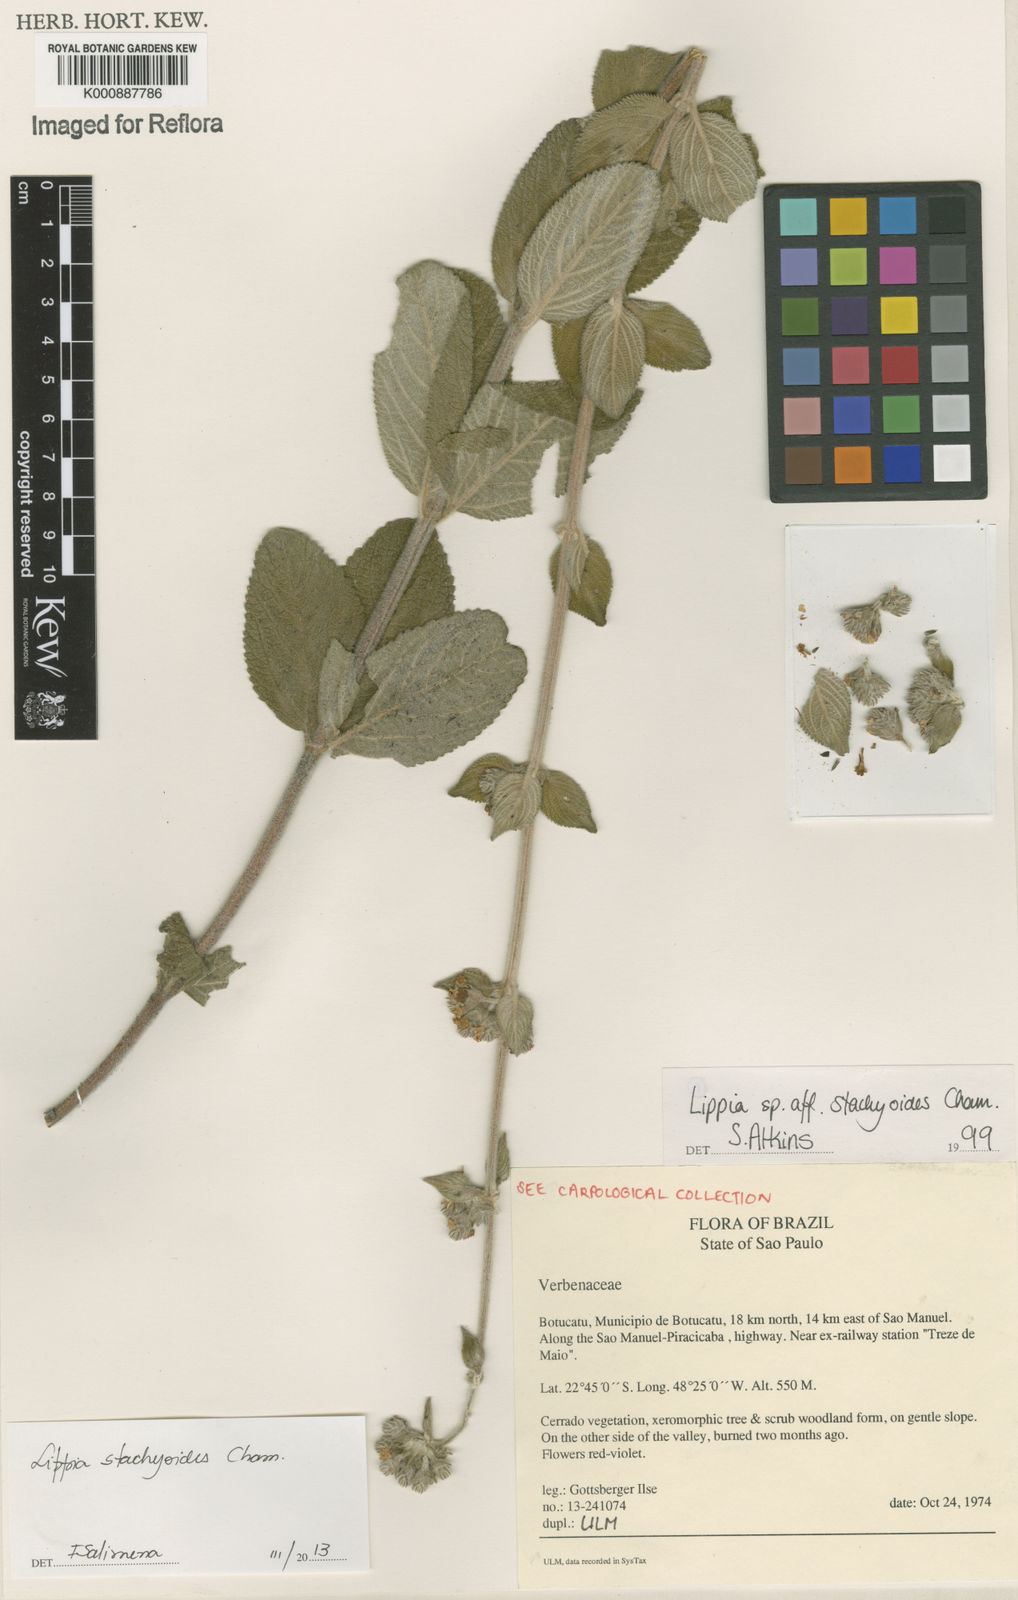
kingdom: Plantae
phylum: Tracheophyta
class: Magnoliopsida
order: Lamiales
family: Verbenaceae
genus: Lippia
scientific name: Lippia stachyoides
